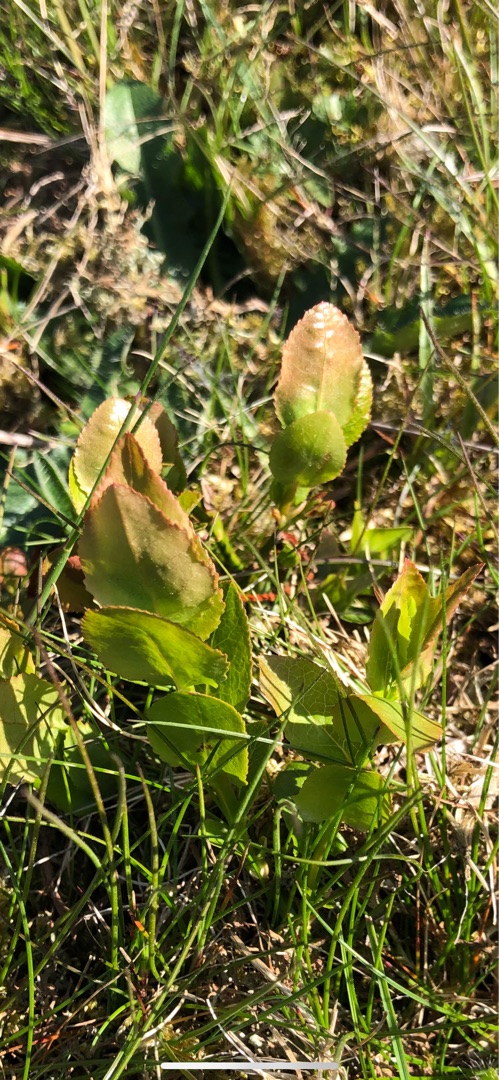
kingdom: Plantae
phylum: Tracheophyta
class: Magnoliopsida
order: Ericales
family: Ericaceae
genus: Vaccinium
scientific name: Vaccinium myrtillus
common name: Blåbær
